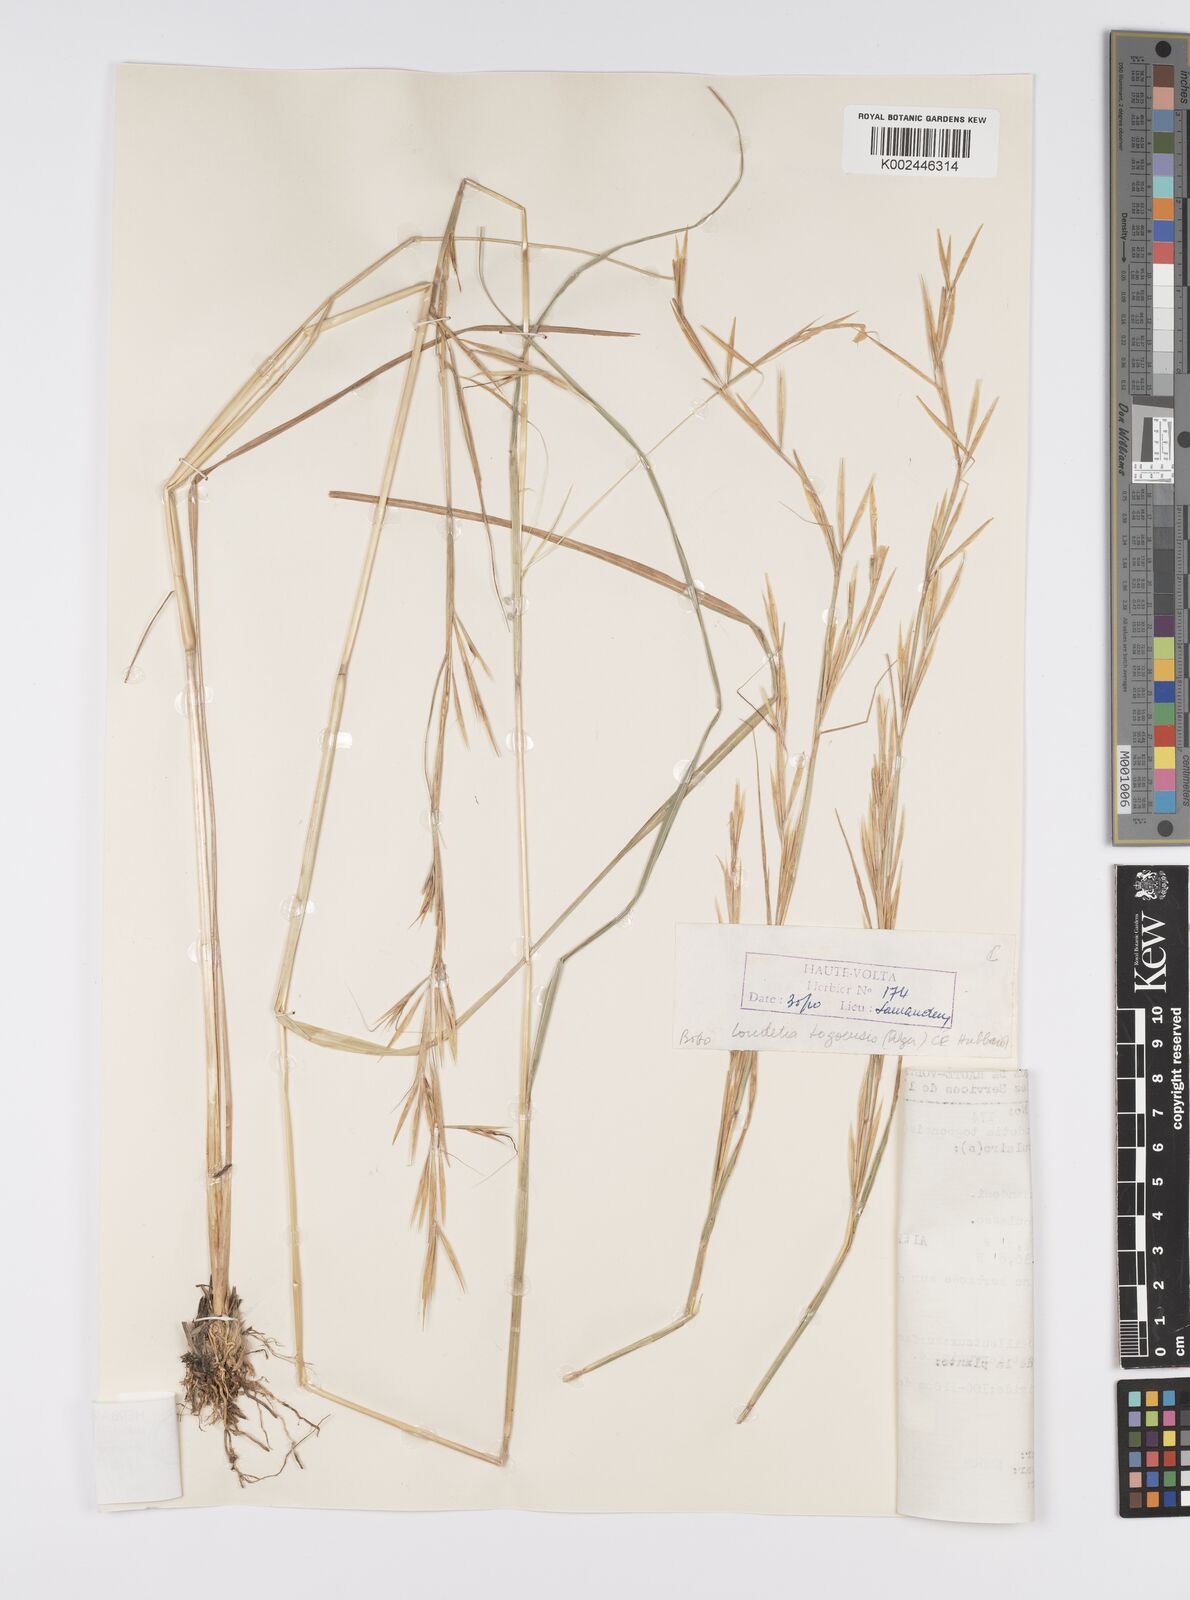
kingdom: Plantae
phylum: Tracheophyta
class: Liliopsida
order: Poales
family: Poaceae
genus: Anadelphia
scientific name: Anadelphia afzeliana
